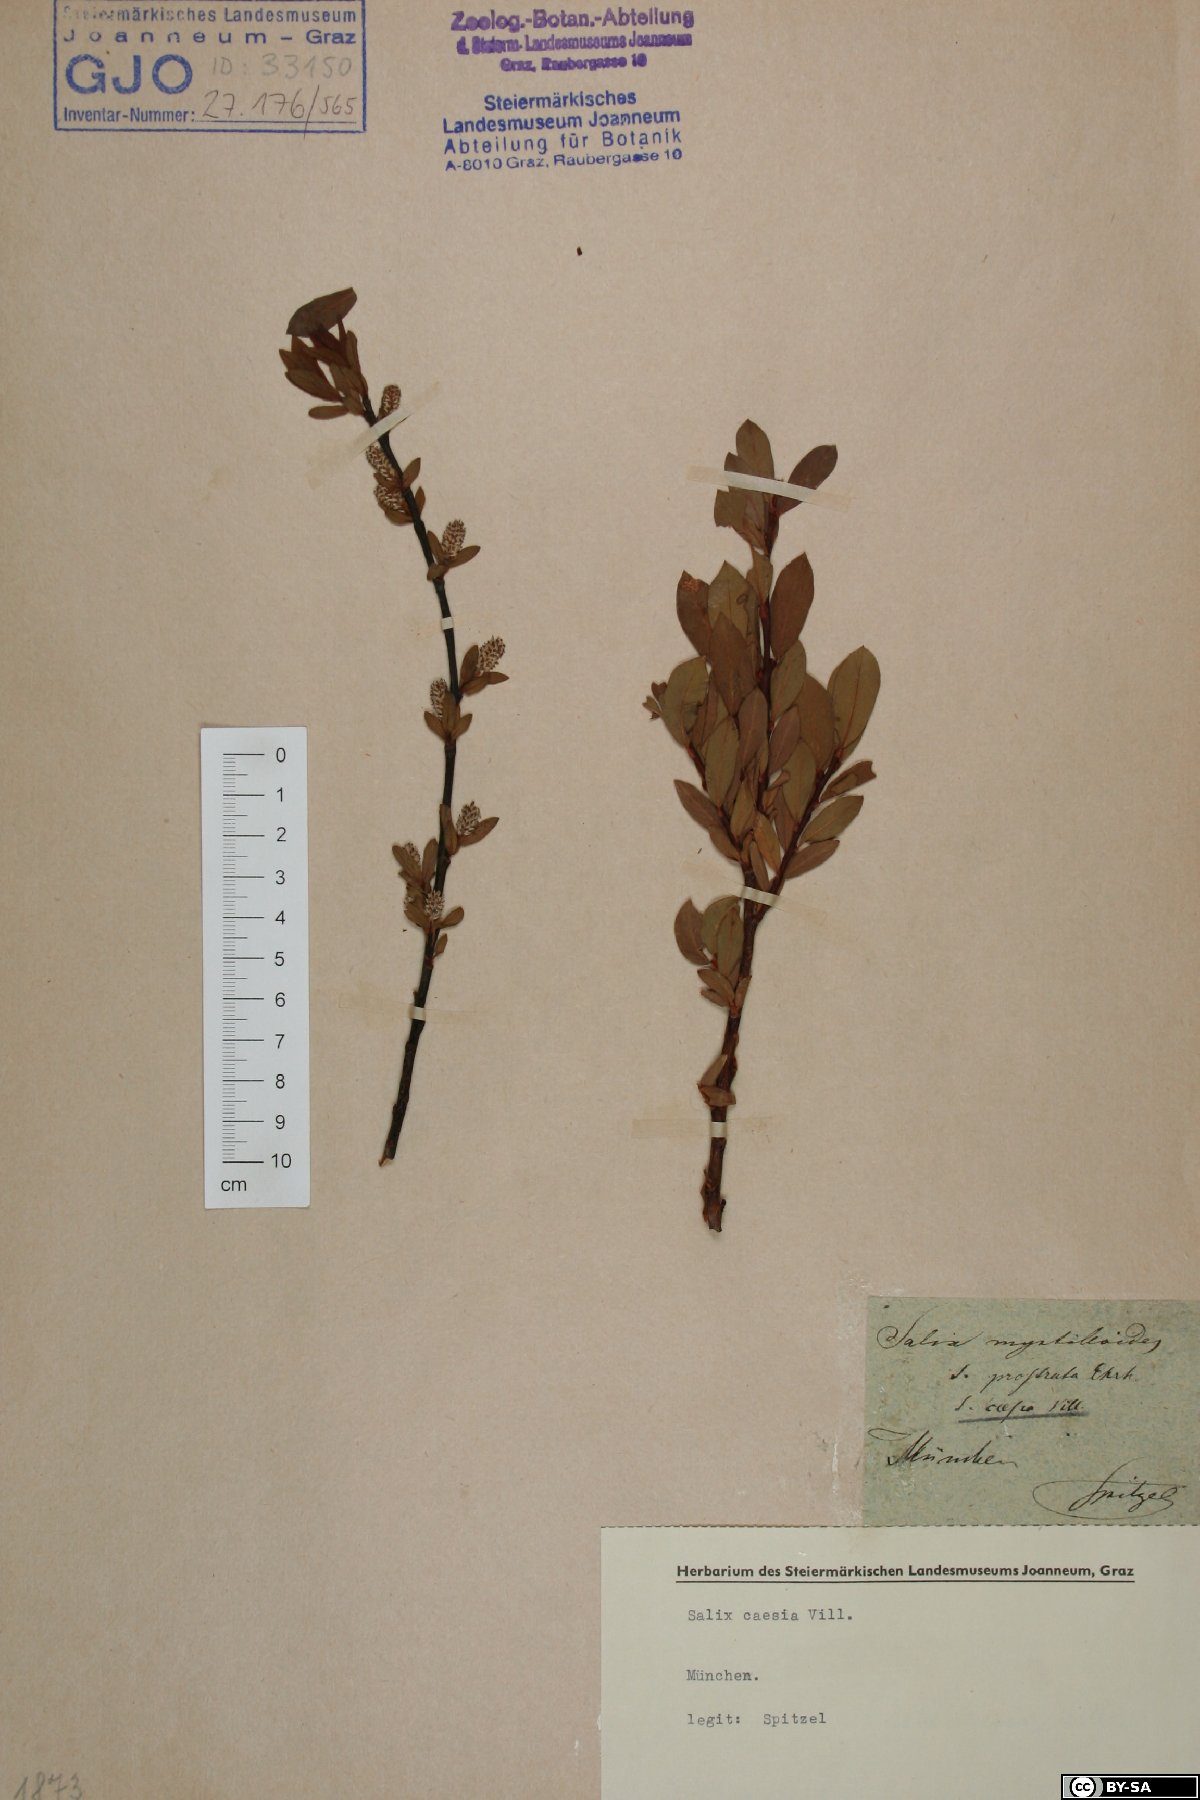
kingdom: Plantae
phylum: Tracheophyta
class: Magnoliopsida
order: Malpighiales
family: Salicaceae
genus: Salix
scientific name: Salix caesia
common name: Blue willow
